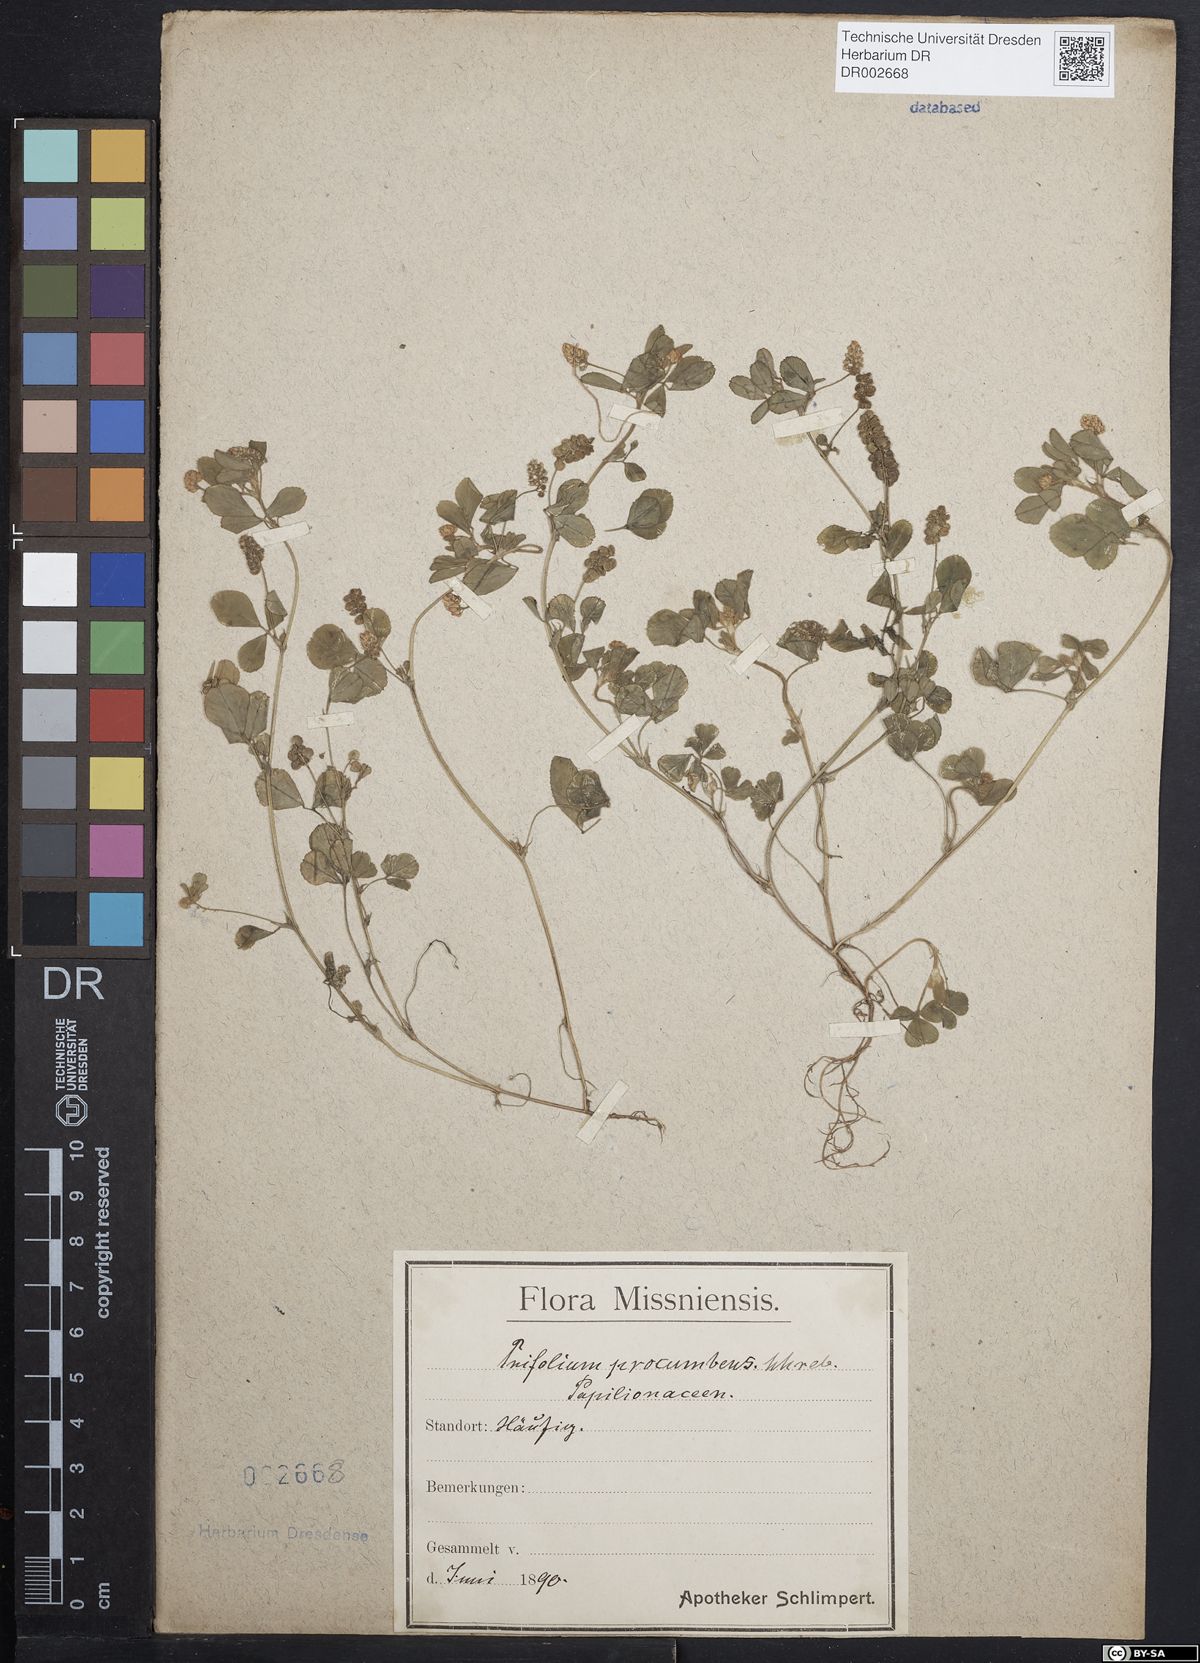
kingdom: Plantae
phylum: Tracheophyta
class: Magnoliopsida
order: Fabales
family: Fabaceae
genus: Trifolium
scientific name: Trifolium campestre
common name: Field clover
